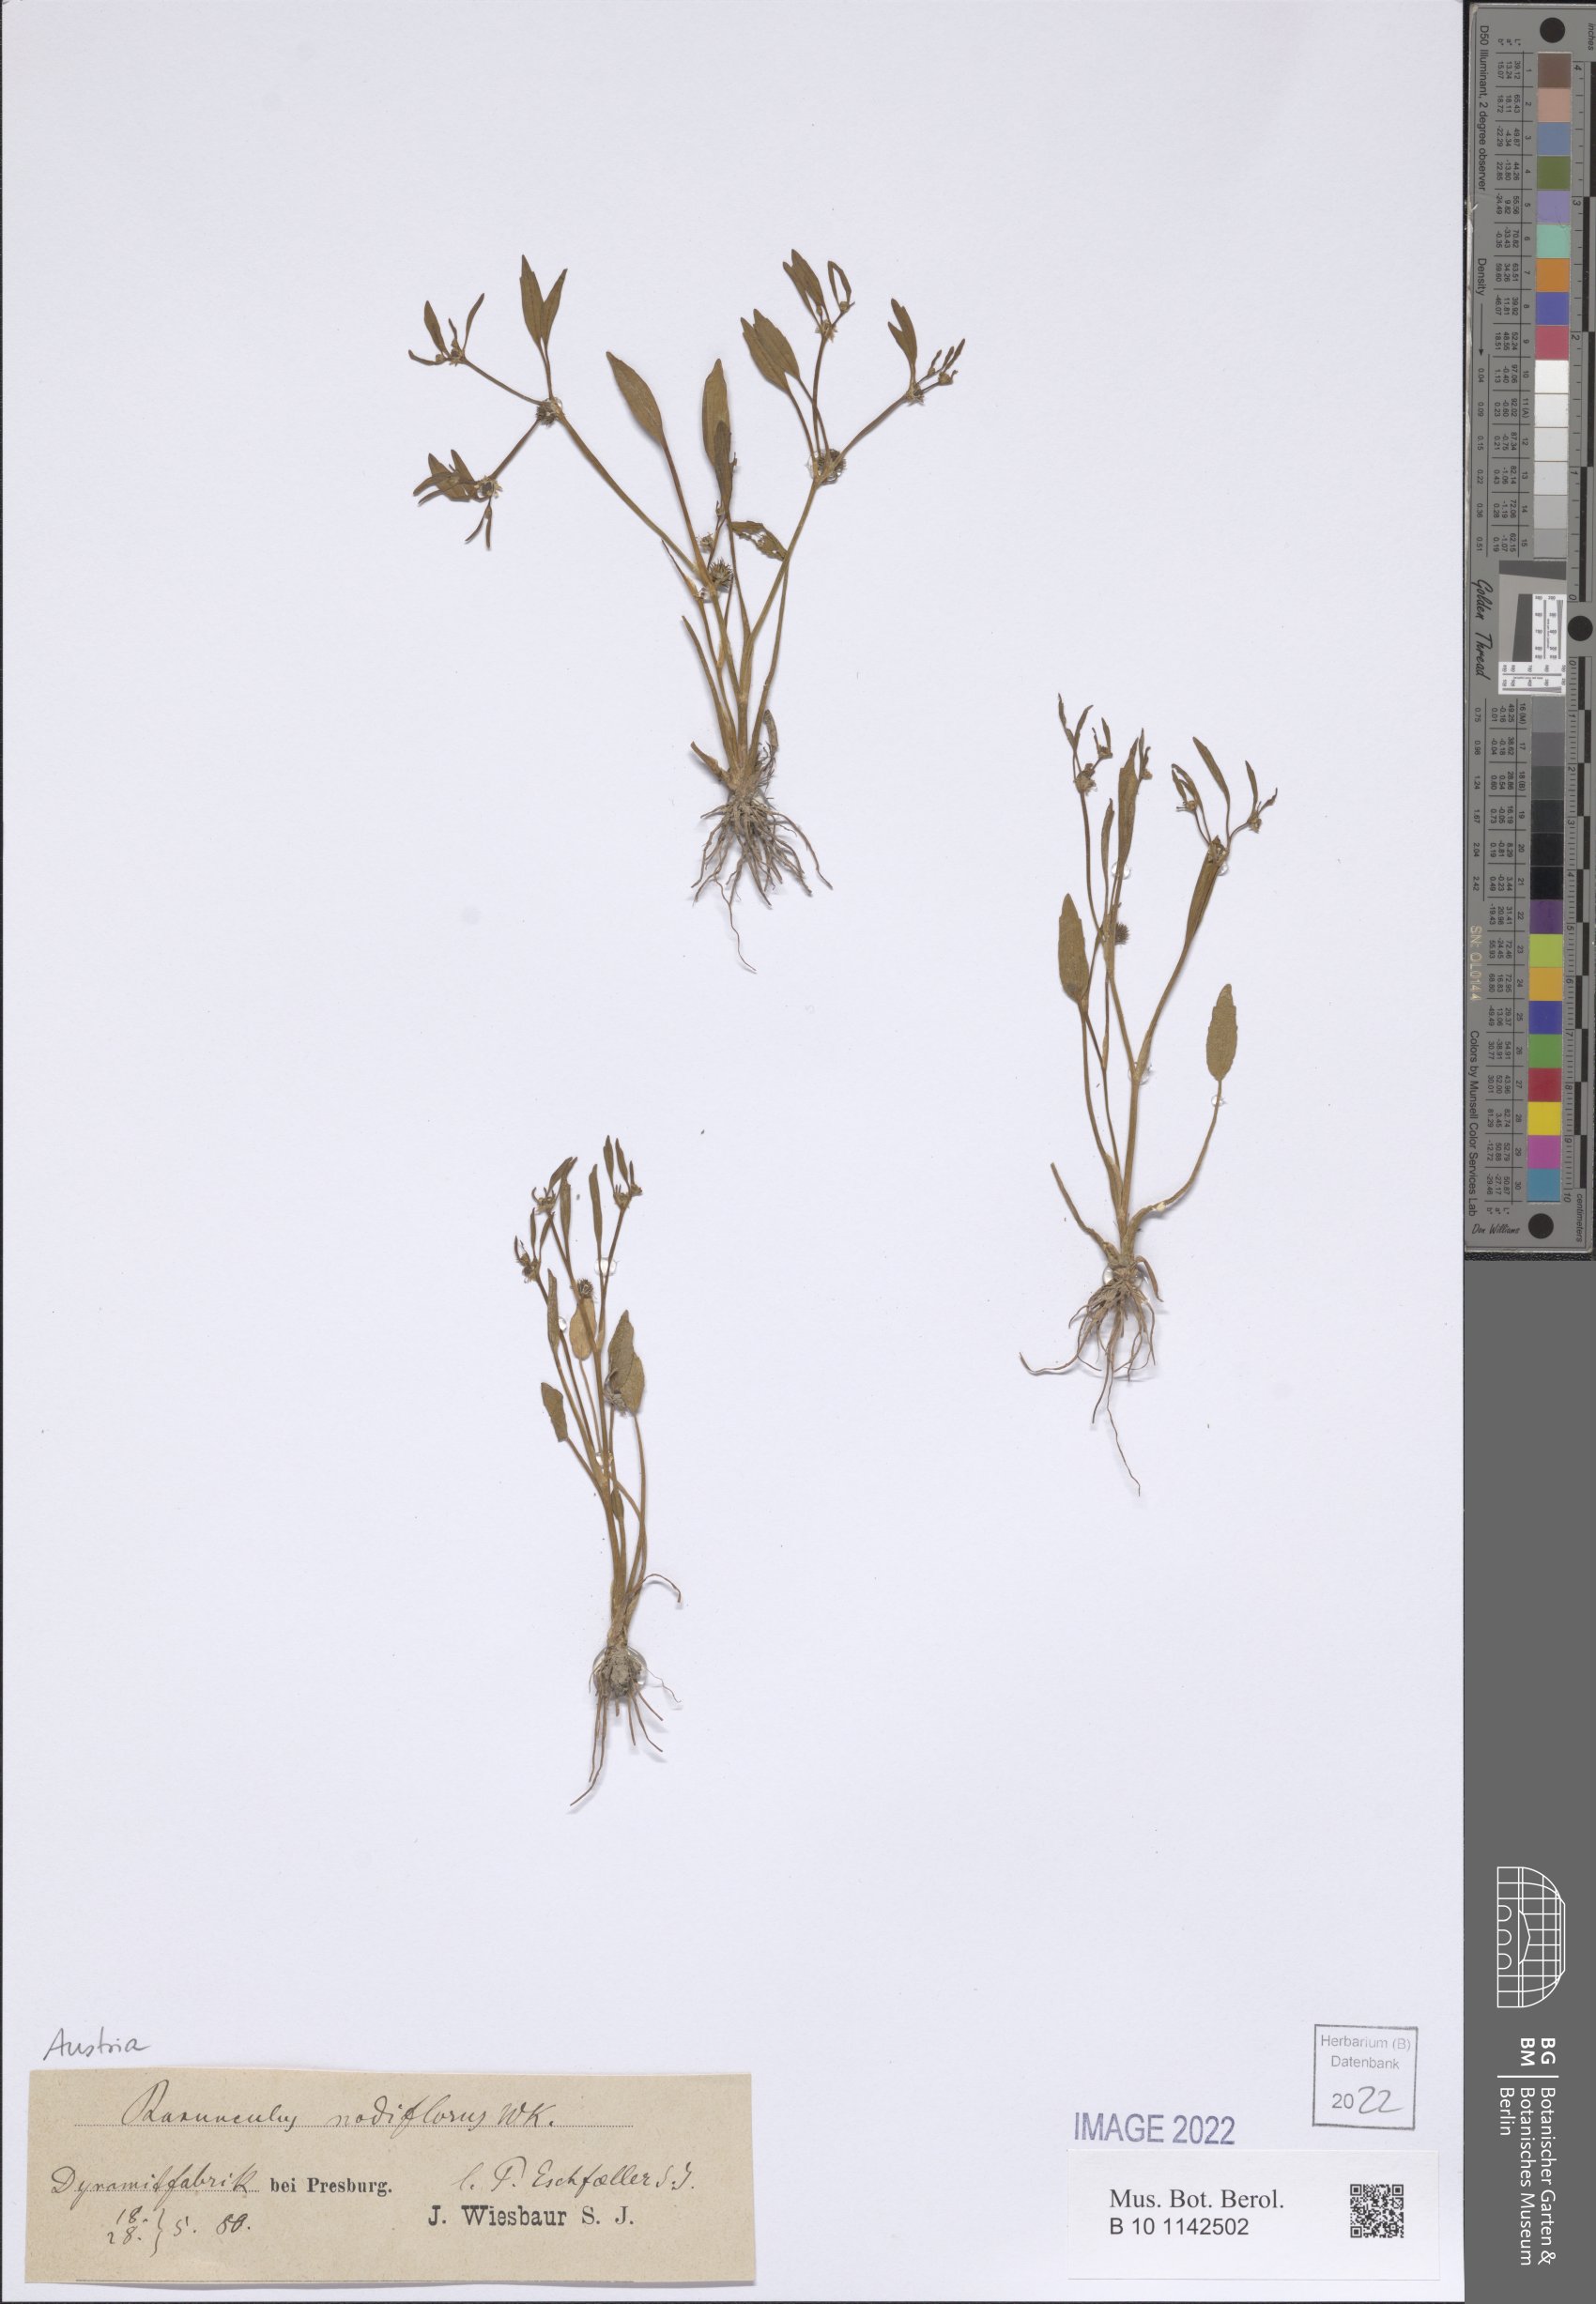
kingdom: Plantae
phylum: Tracheophyta
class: Magnoliopsida
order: Ranunculales
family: Ranunculaceae
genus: Ranunculus
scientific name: Ranunculus nodiflorus
